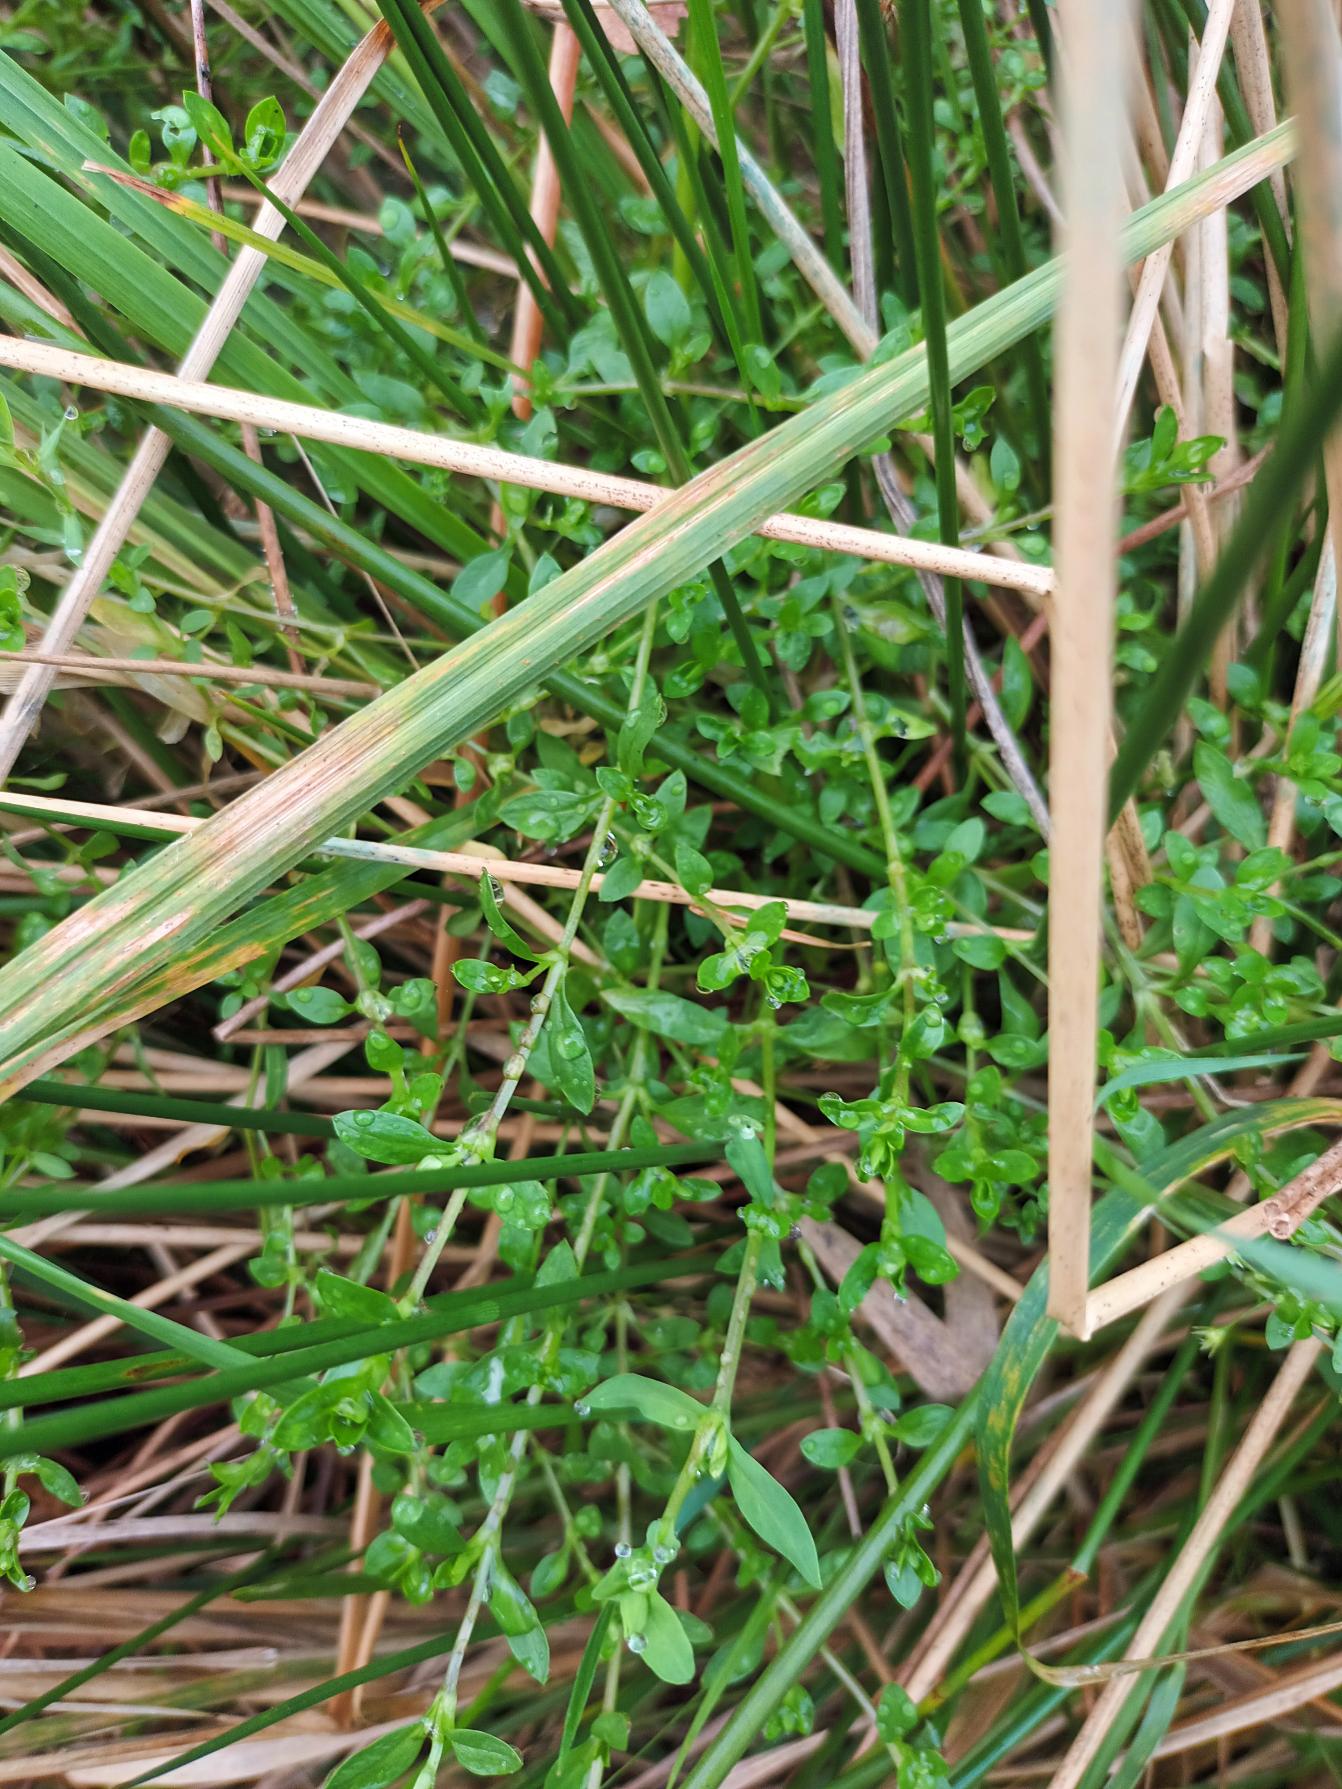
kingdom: Plantae
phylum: Tracheophyta
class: Magnoliopsida
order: Caryophyllales
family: Caryophyllaceae
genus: Stellaria
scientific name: Stellaria alsine
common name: Sump-fladstjerne
